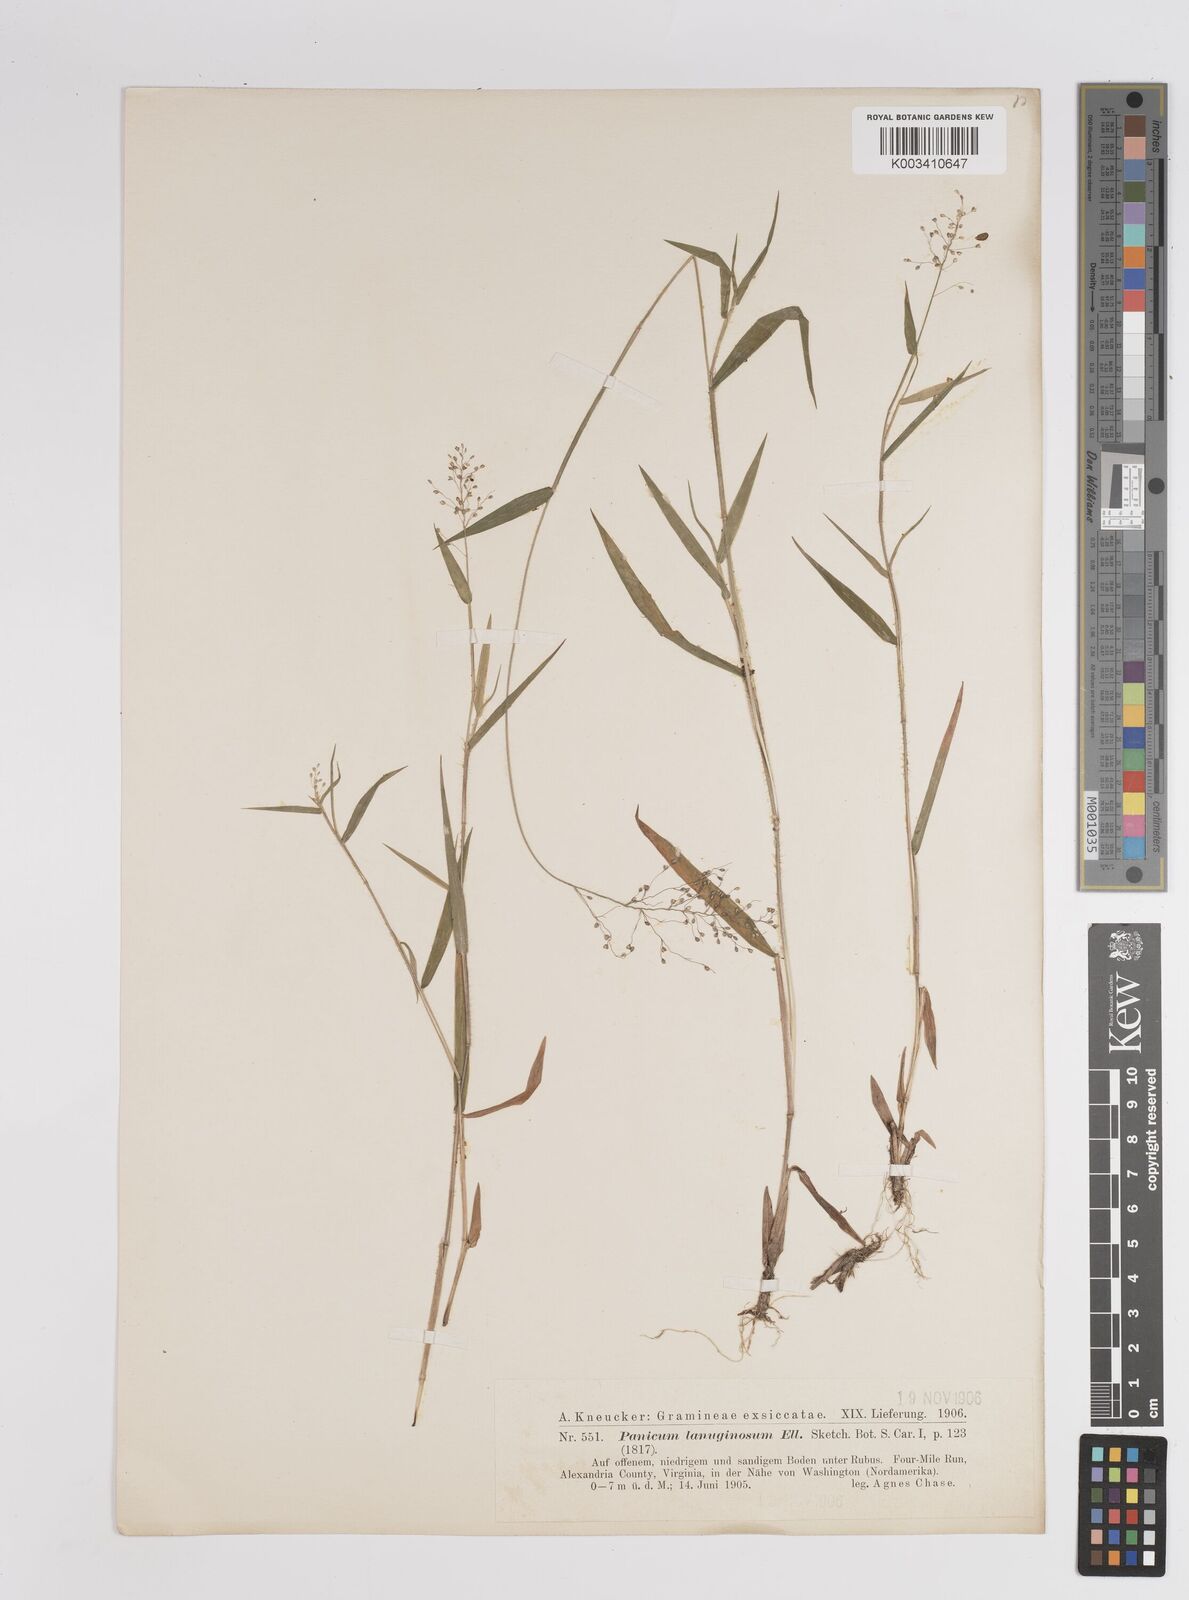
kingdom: Plantae
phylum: Tracheophyta
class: Liliopsida
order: Poales
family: Poaceae
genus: Dichanthelium
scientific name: Dichanthelium lanuginosum
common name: Woolly panicgrass
